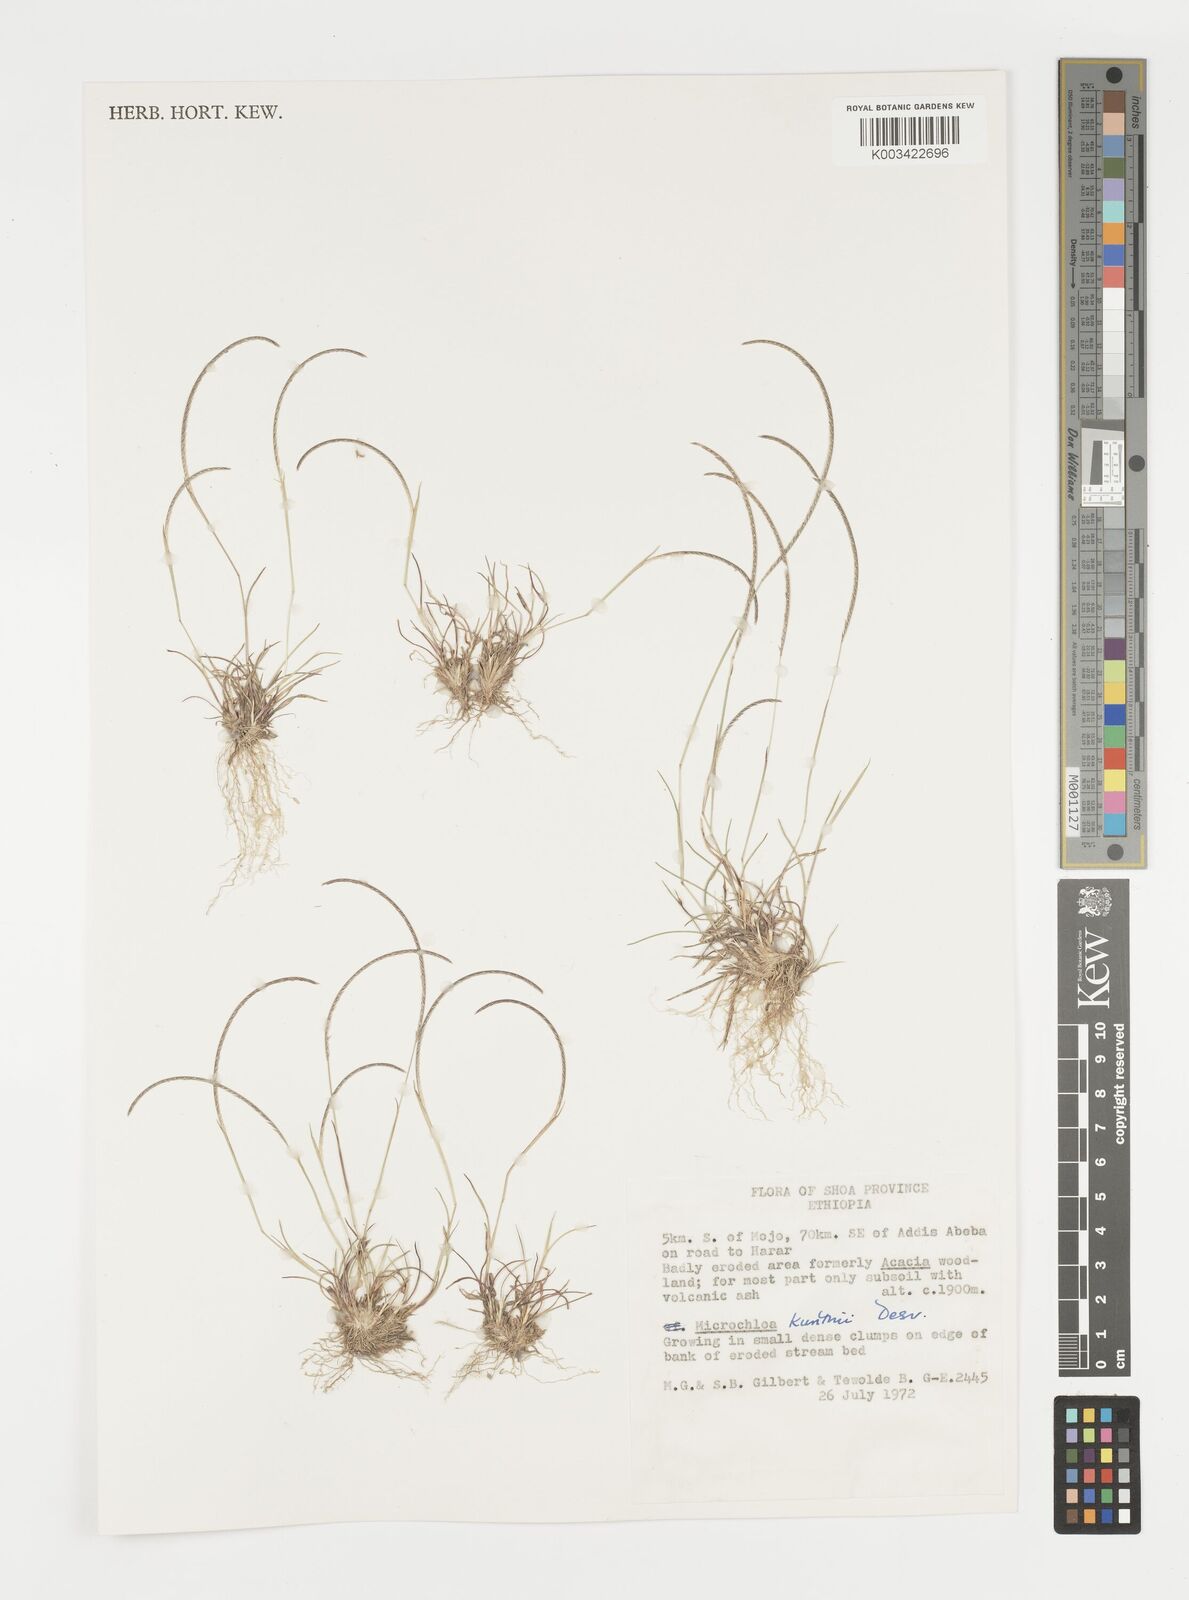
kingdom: Plantae
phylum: Tracheophyta
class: Liliopsida
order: Poales
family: Poaceae
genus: Microchloa
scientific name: Microchloa kunthii
